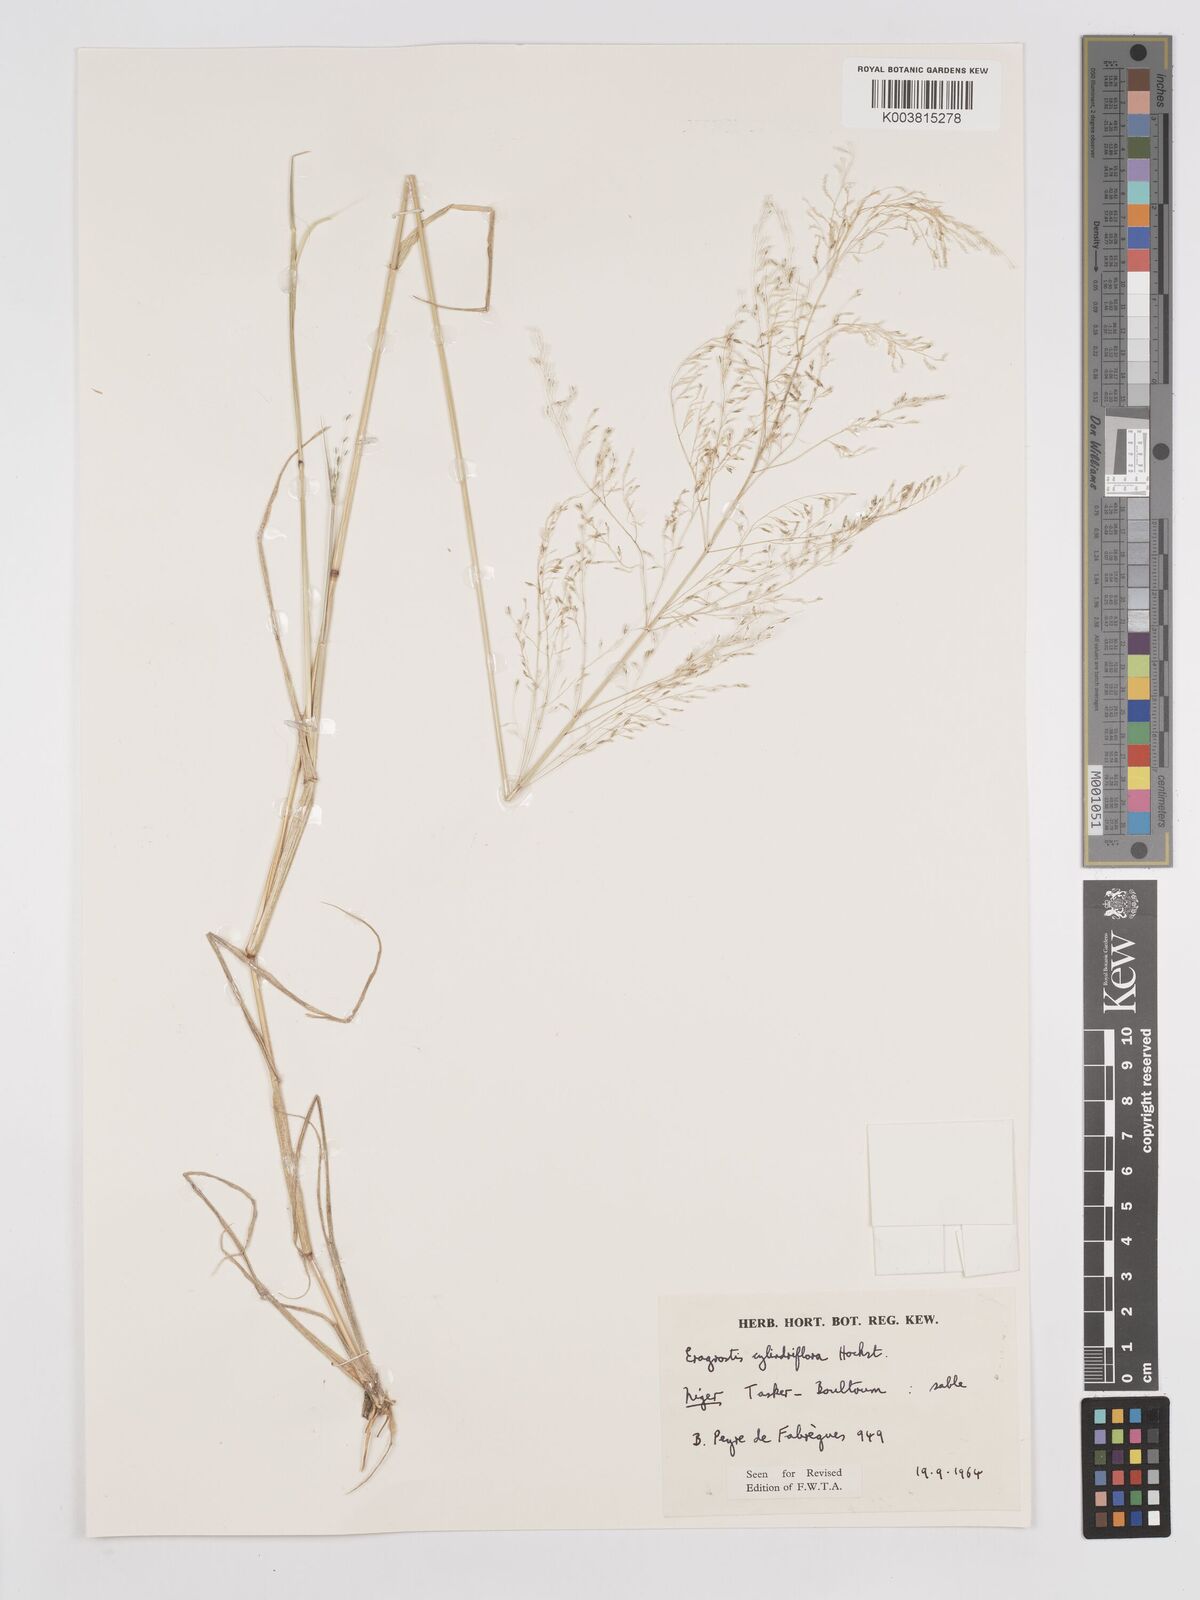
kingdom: Plantae
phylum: Tracheophyta
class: Liliopsida
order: Poales
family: Poaceae
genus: Eragrostis
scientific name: Eragrostis cylindriflora
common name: Cylinderflower lovegrass
